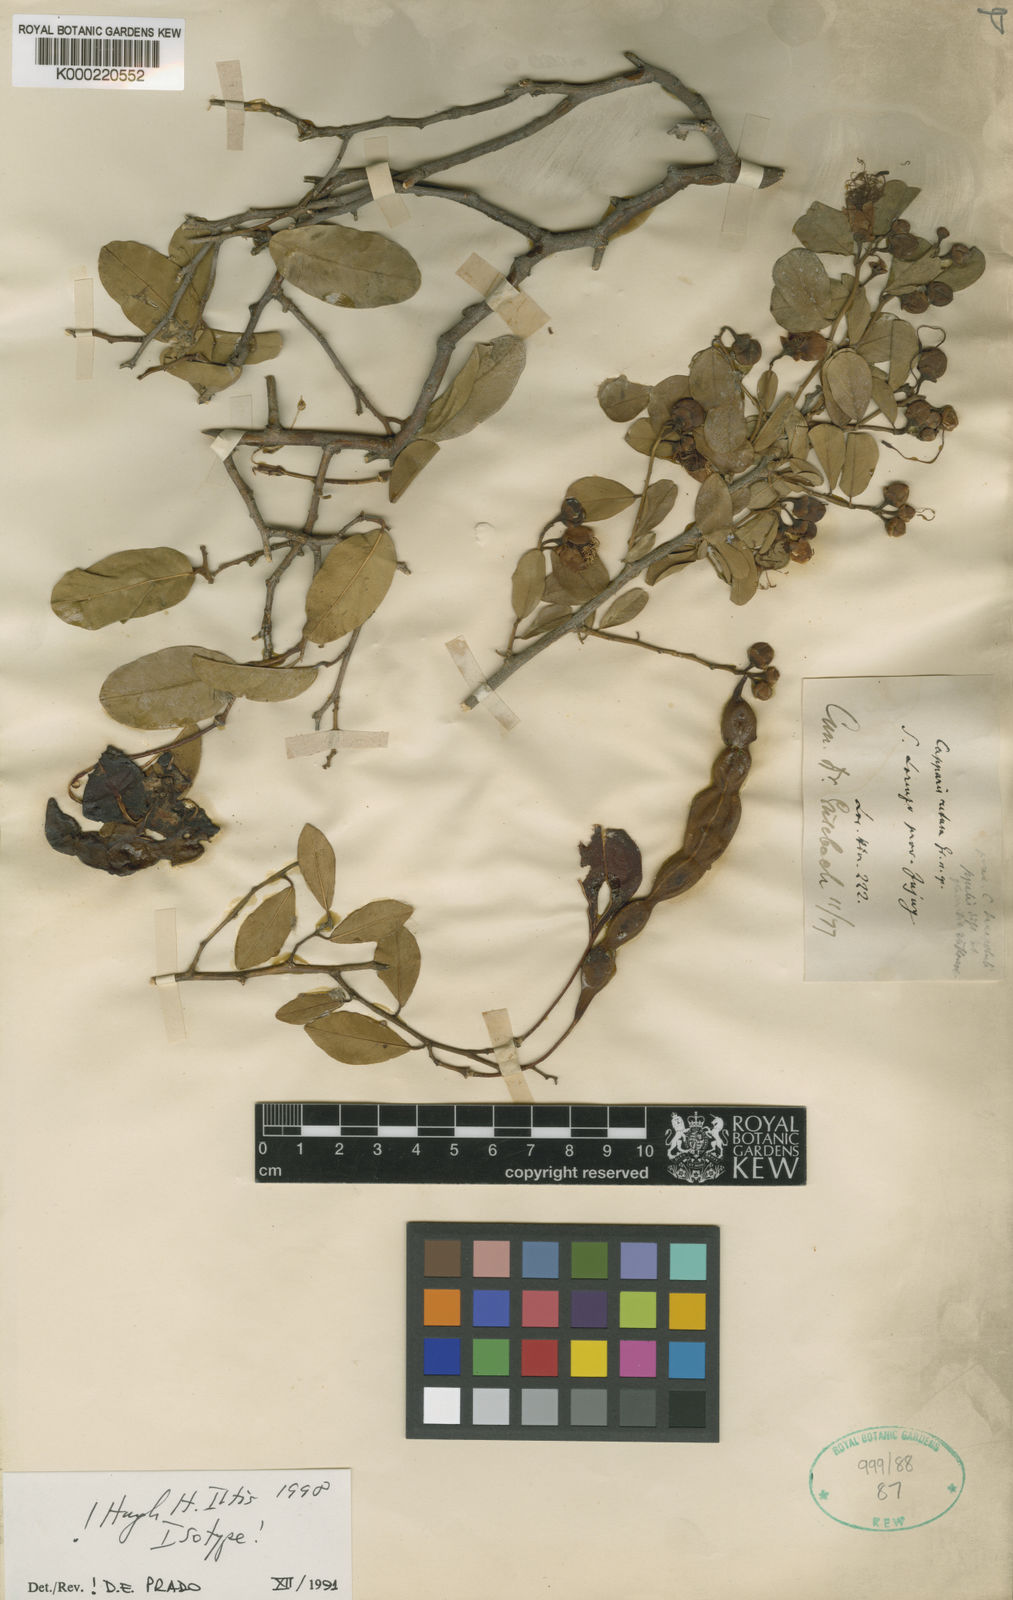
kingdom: Plantae
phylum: Tracheophyta
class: Magnoliopsida
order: Brassicales
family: Capparaceae
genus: Cynophalla
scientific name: Cynophalla retusa
